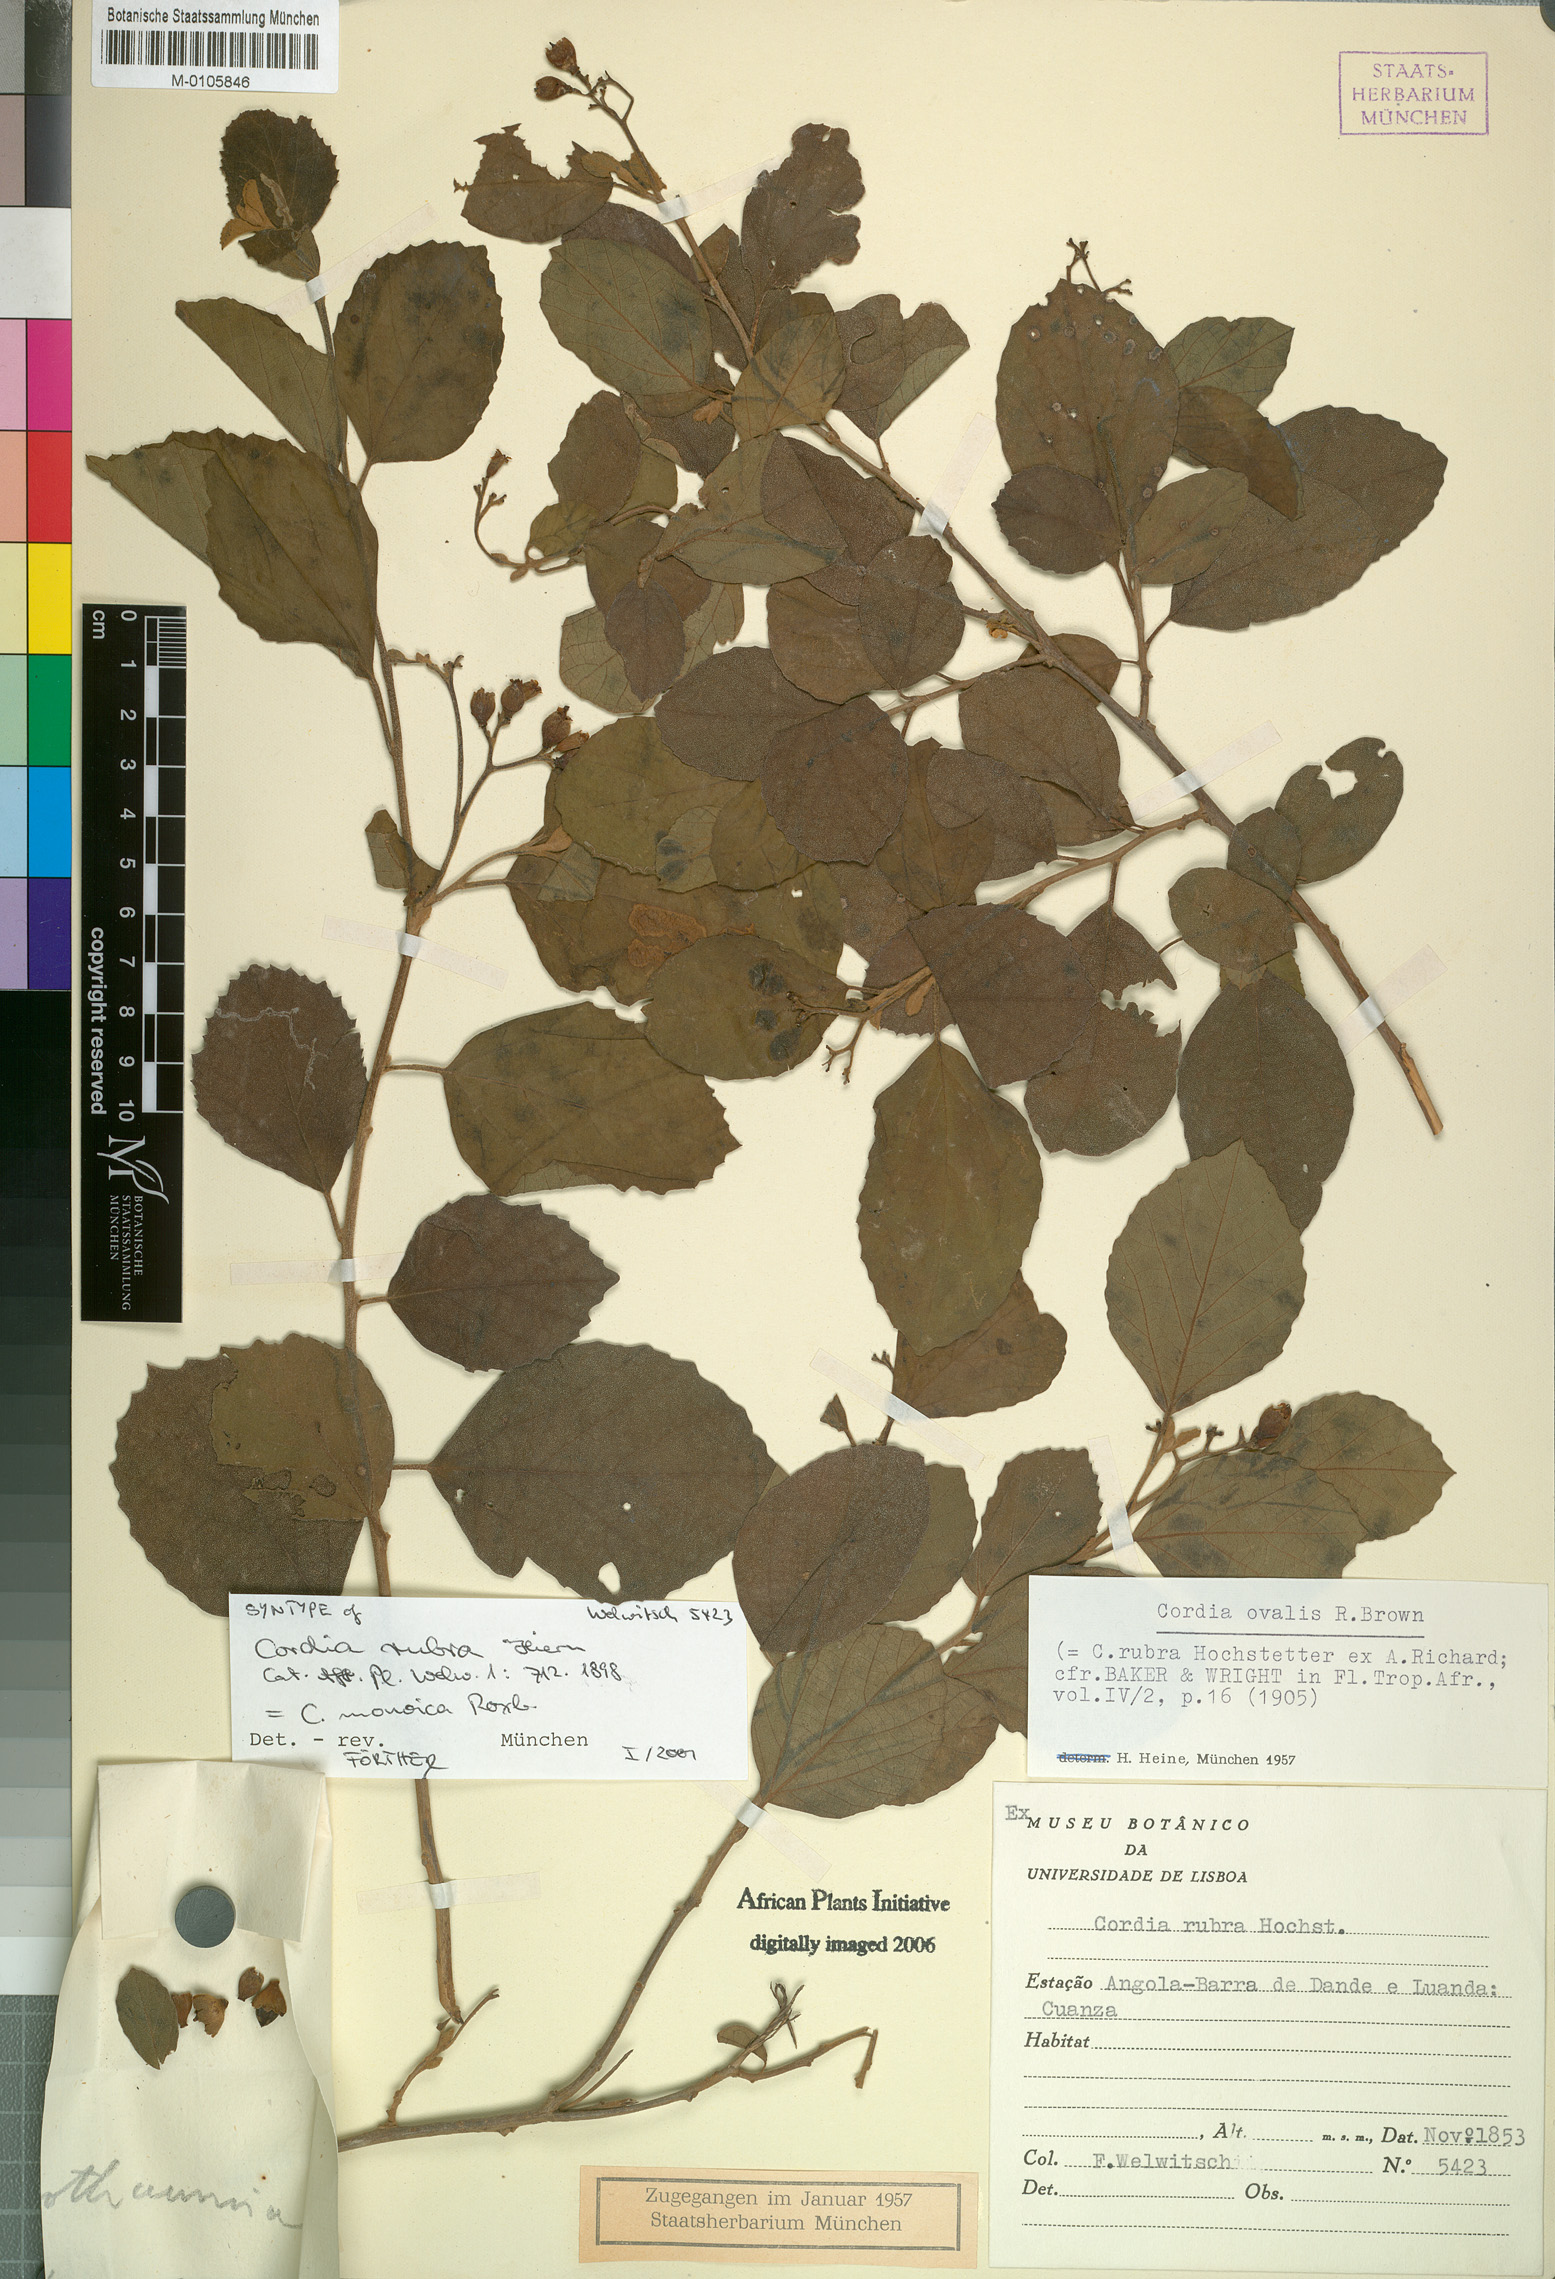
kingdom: Plantae
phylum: Tracheophyta
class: Magnoliopsida
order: Boraginales
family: Cordiaceae
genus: Cordia
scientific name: Cordia monoica
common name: Snot berry
